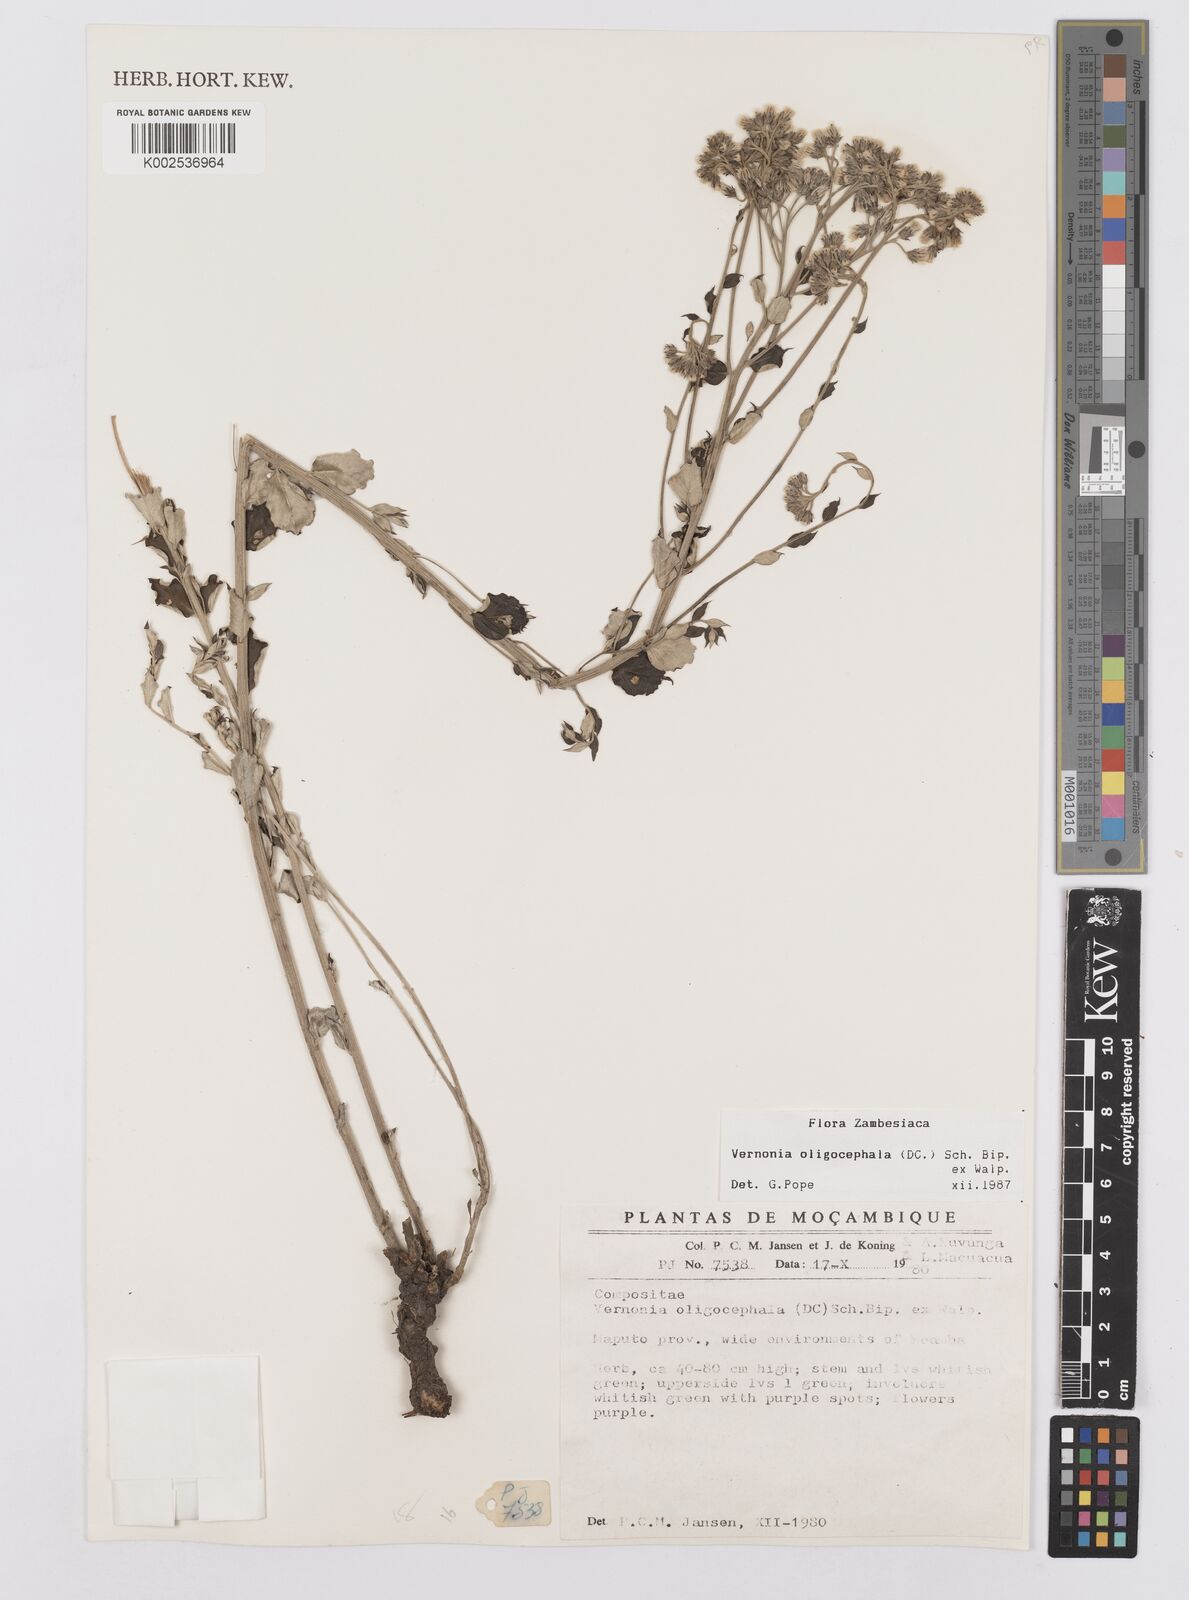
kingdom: Plantae
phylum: Tracheophyta
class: Magnoliopsida
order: Asterales
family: Asteraceae
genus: Hilliardiella
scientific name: Hilliardiella oligocephala
